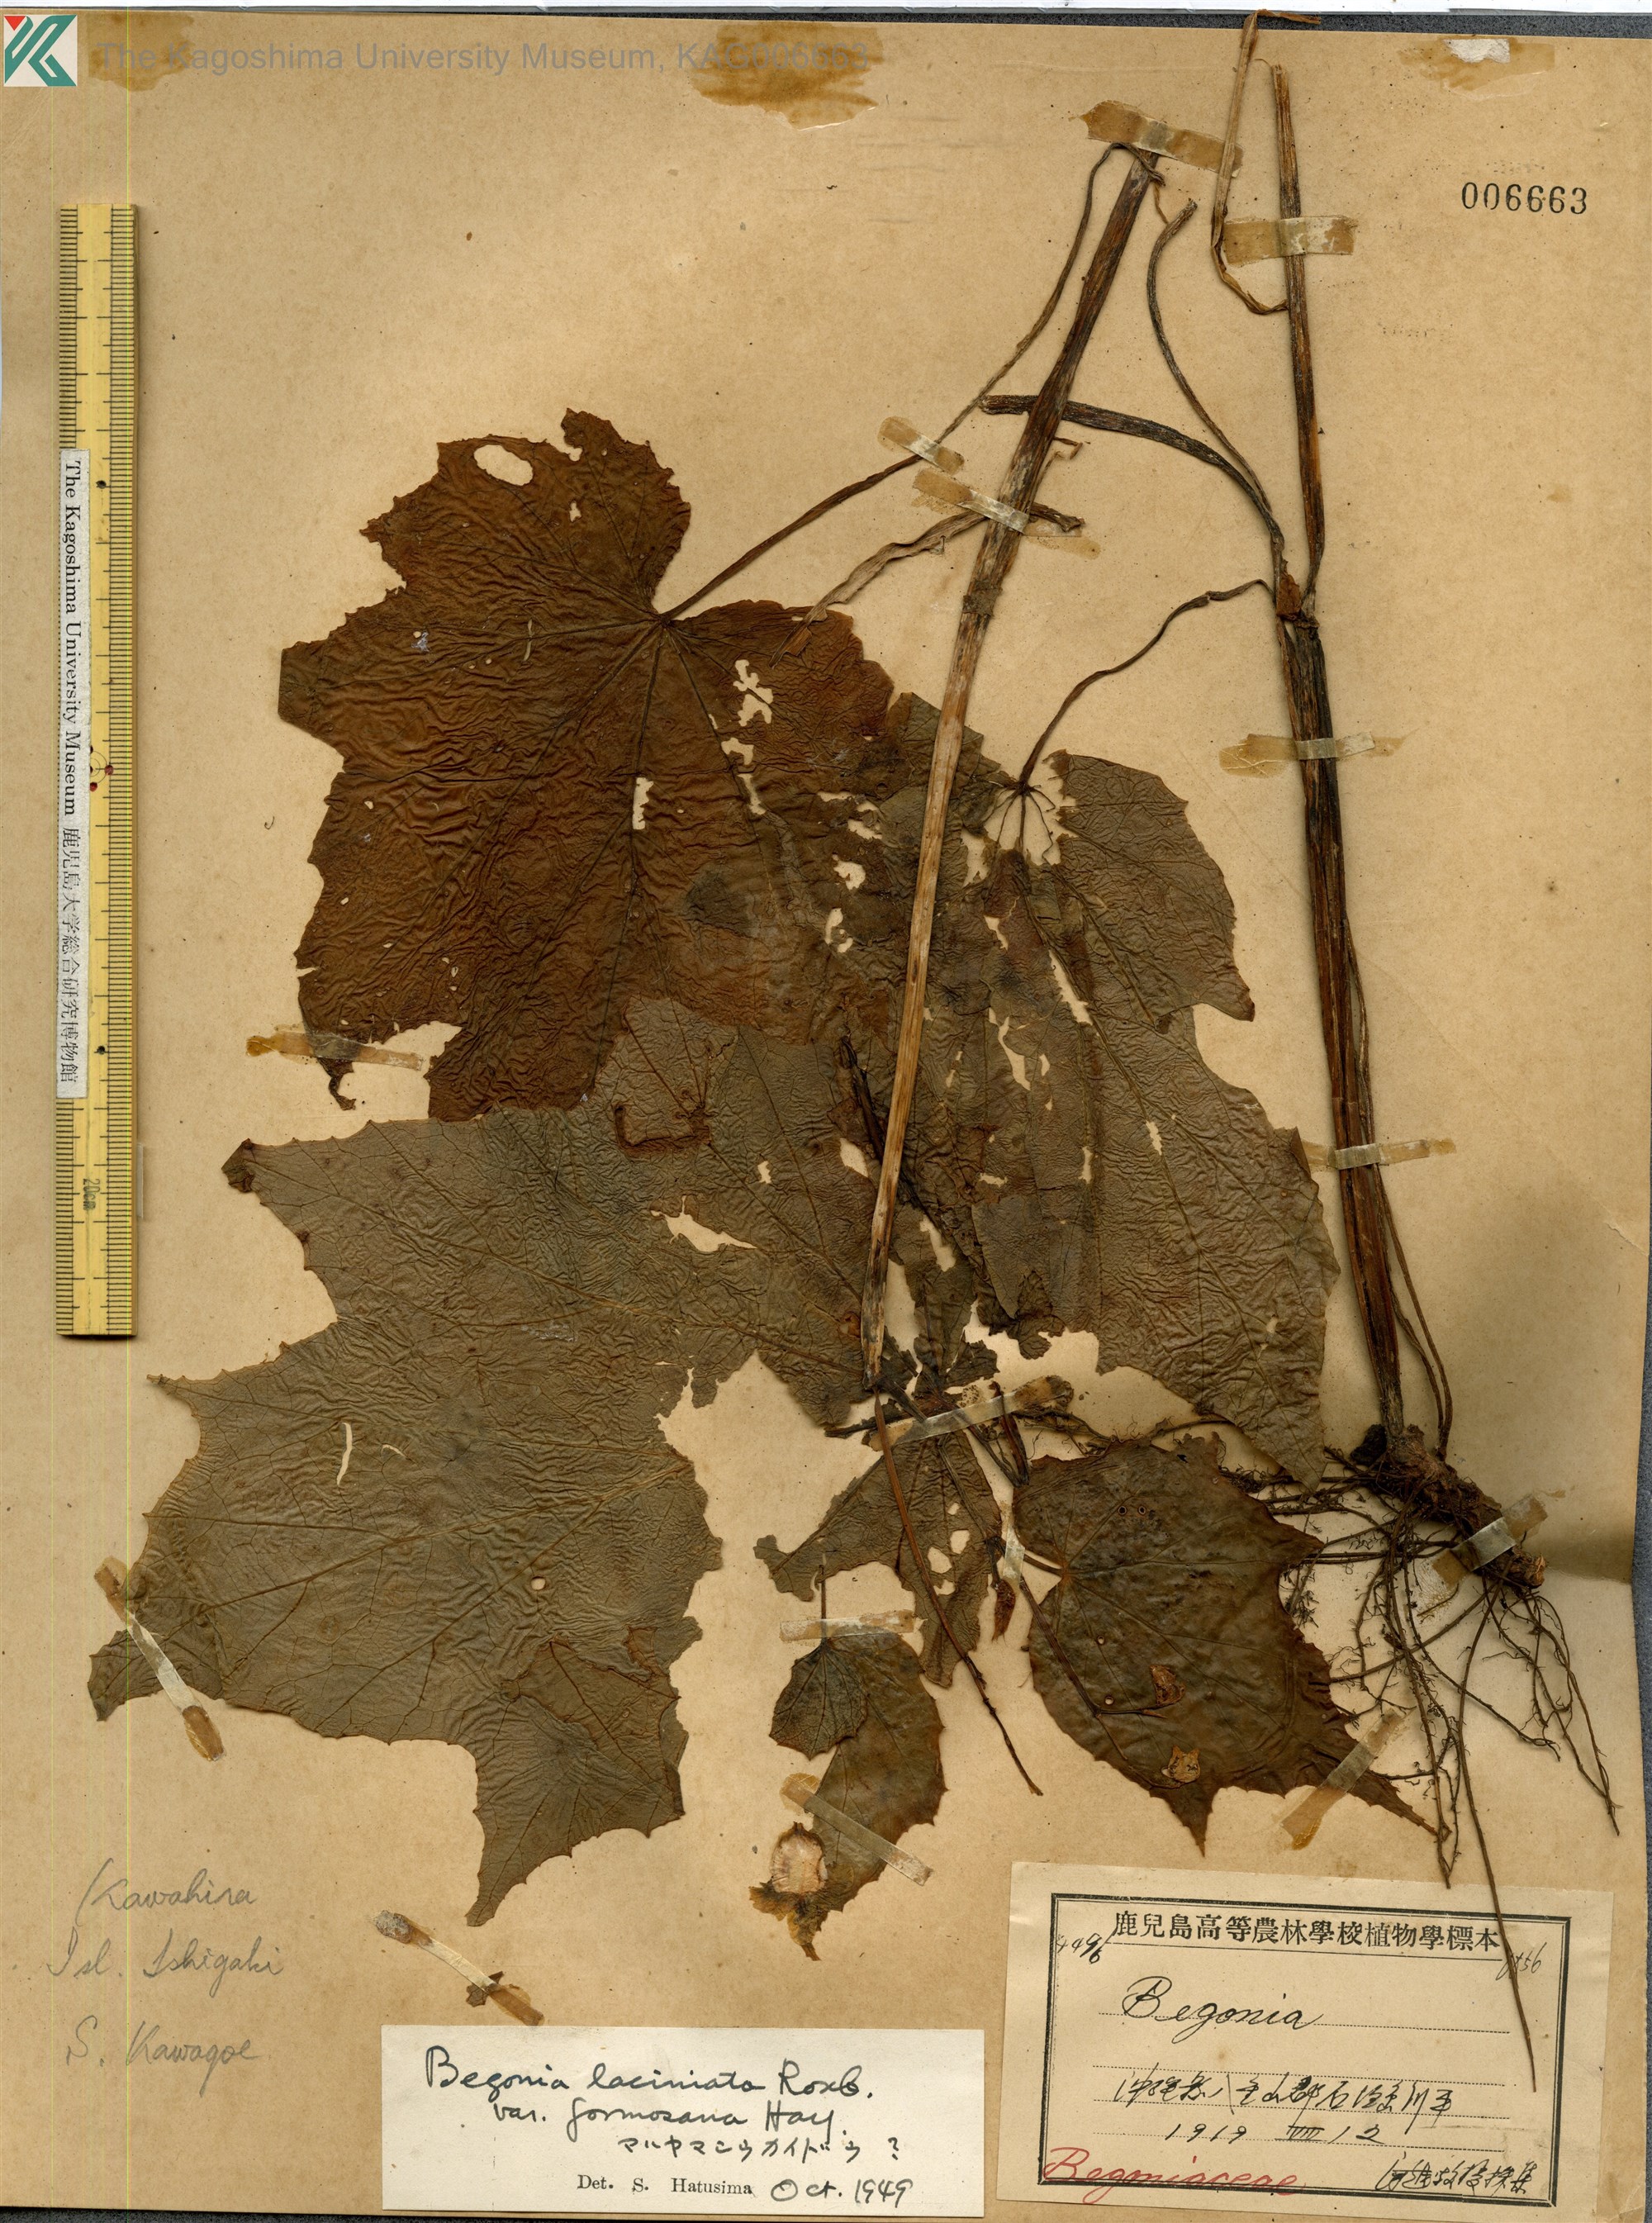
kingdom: Plantae
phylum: Tracheophyta
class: Magnoliopsida
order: Cucurbitales
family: Begoniaceae
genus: Begonia
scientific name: Begonia palmata
